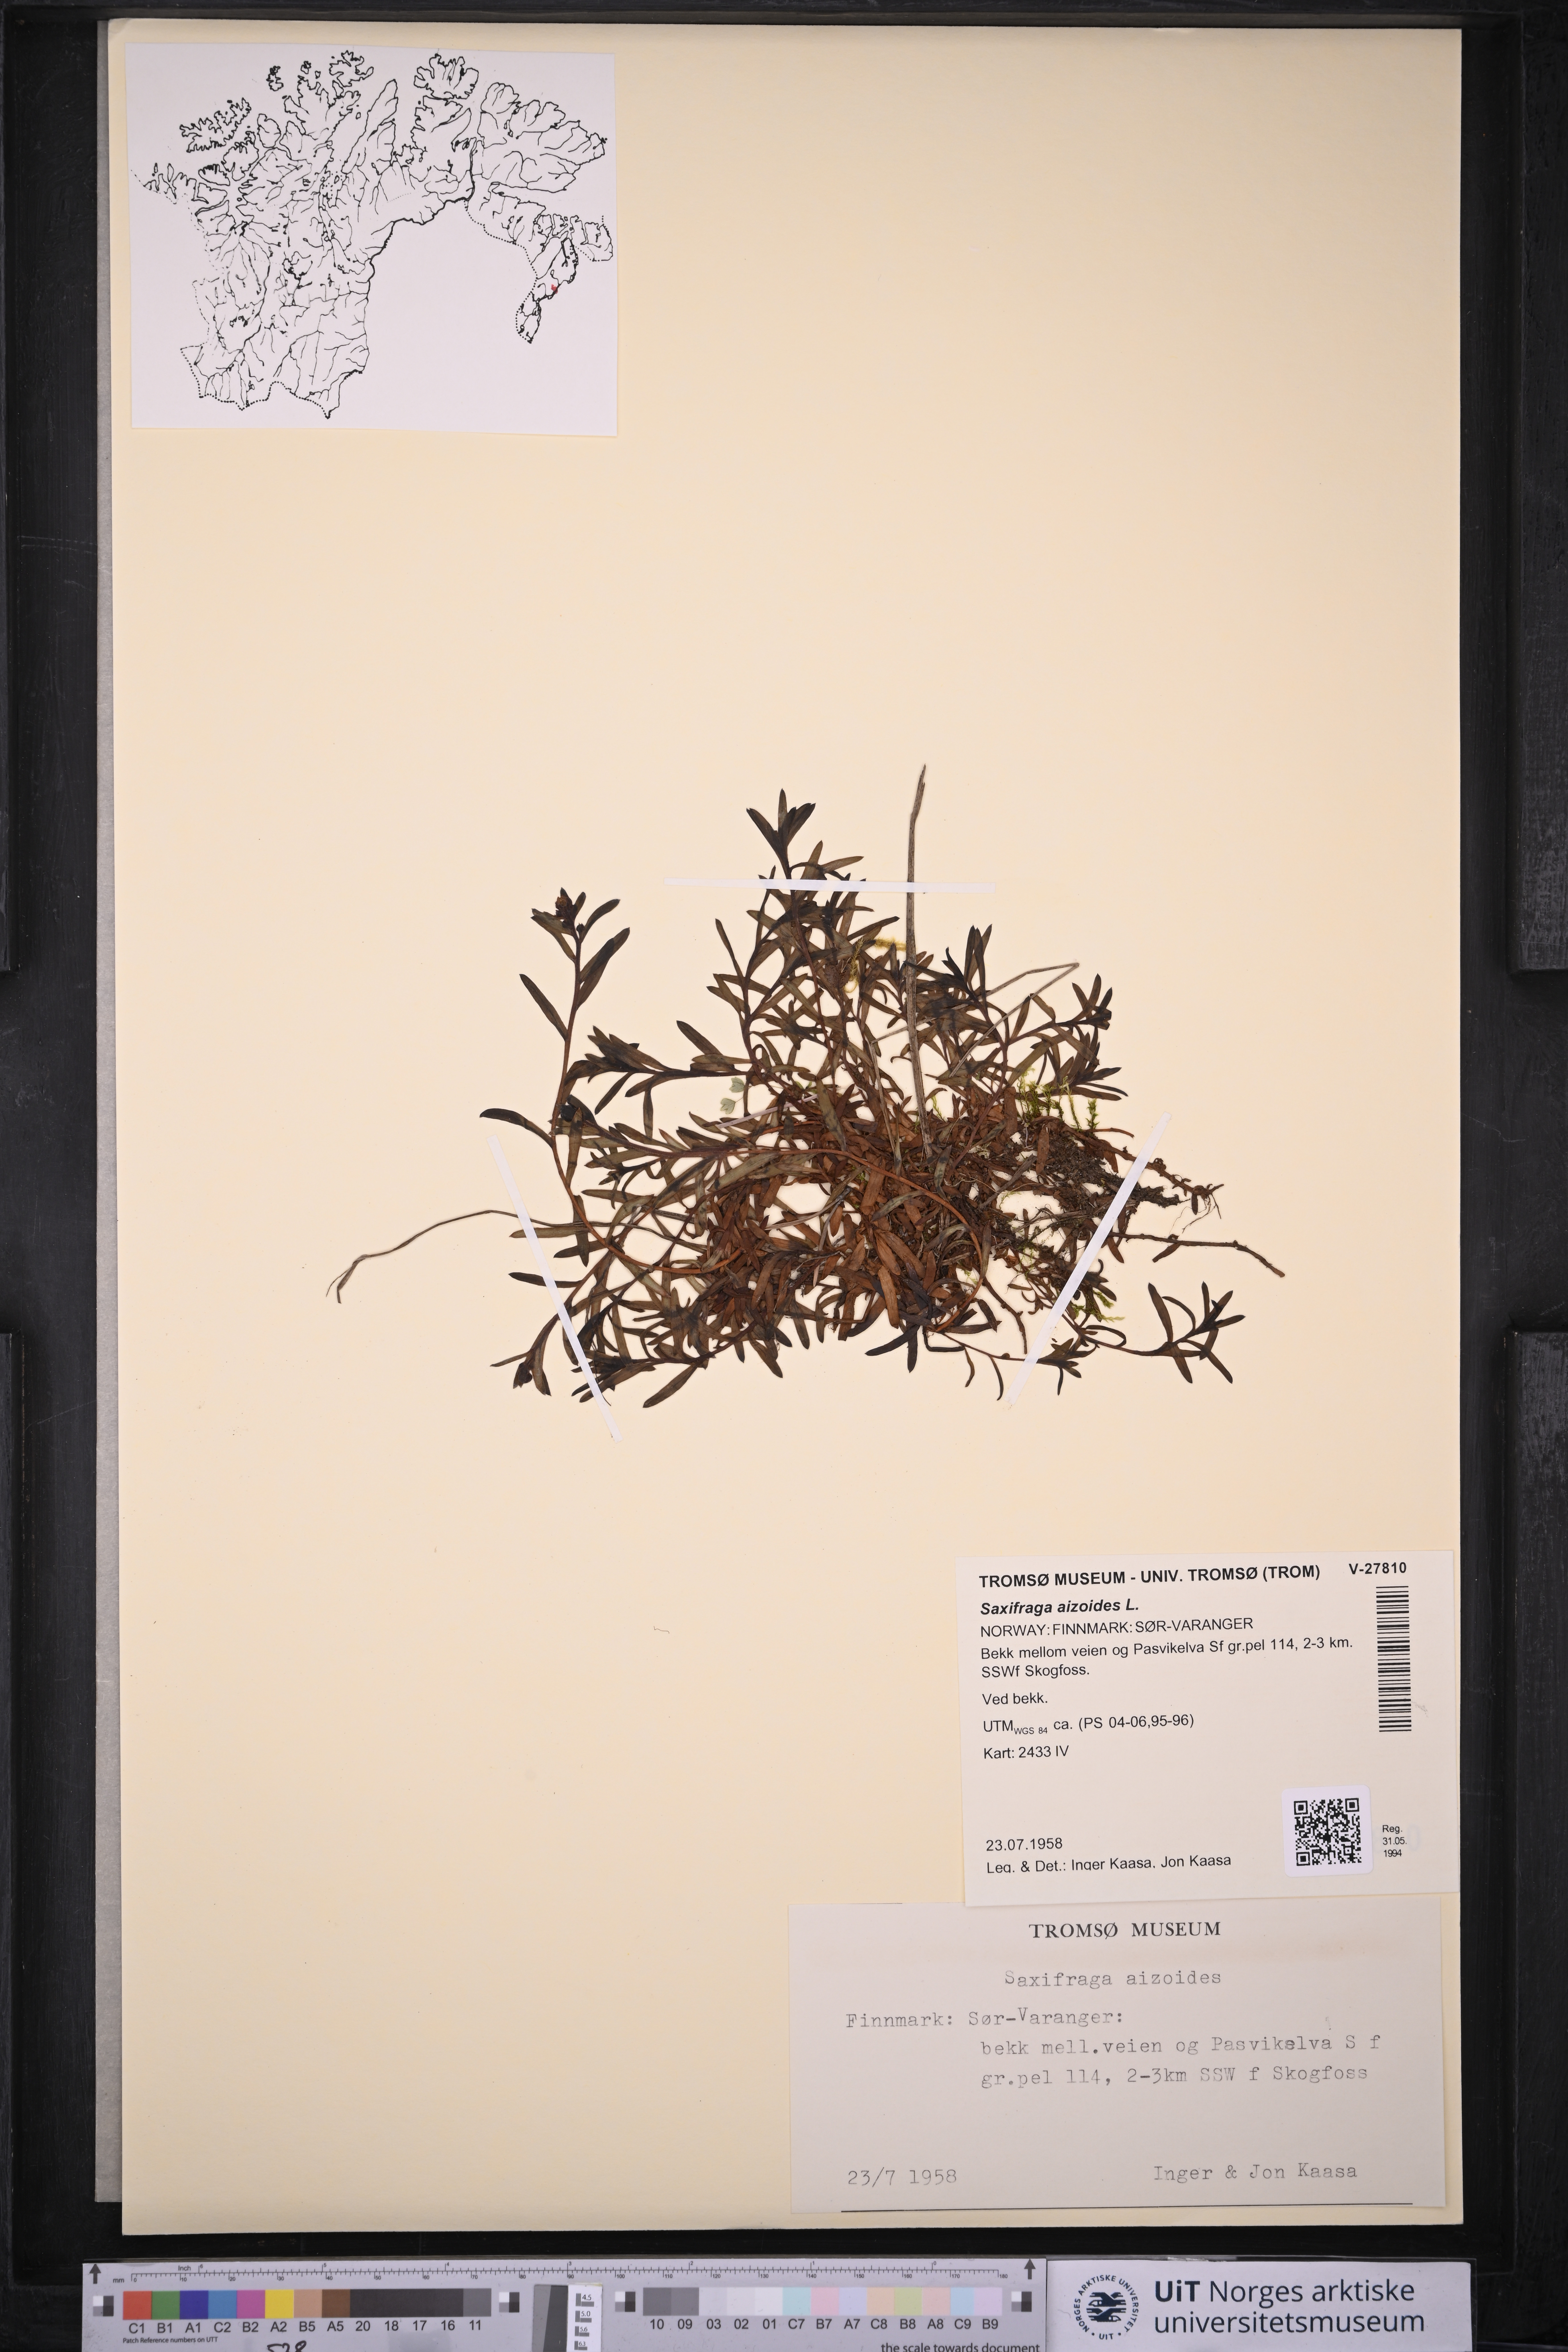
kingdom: Plantae
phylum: Tracheophyta
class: Magnoliopsida
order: Saxifragales
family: Saxifragaceae
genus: Saxifraga
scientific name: Saxifraga aizoides
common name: Yellow mountain saxifrage
